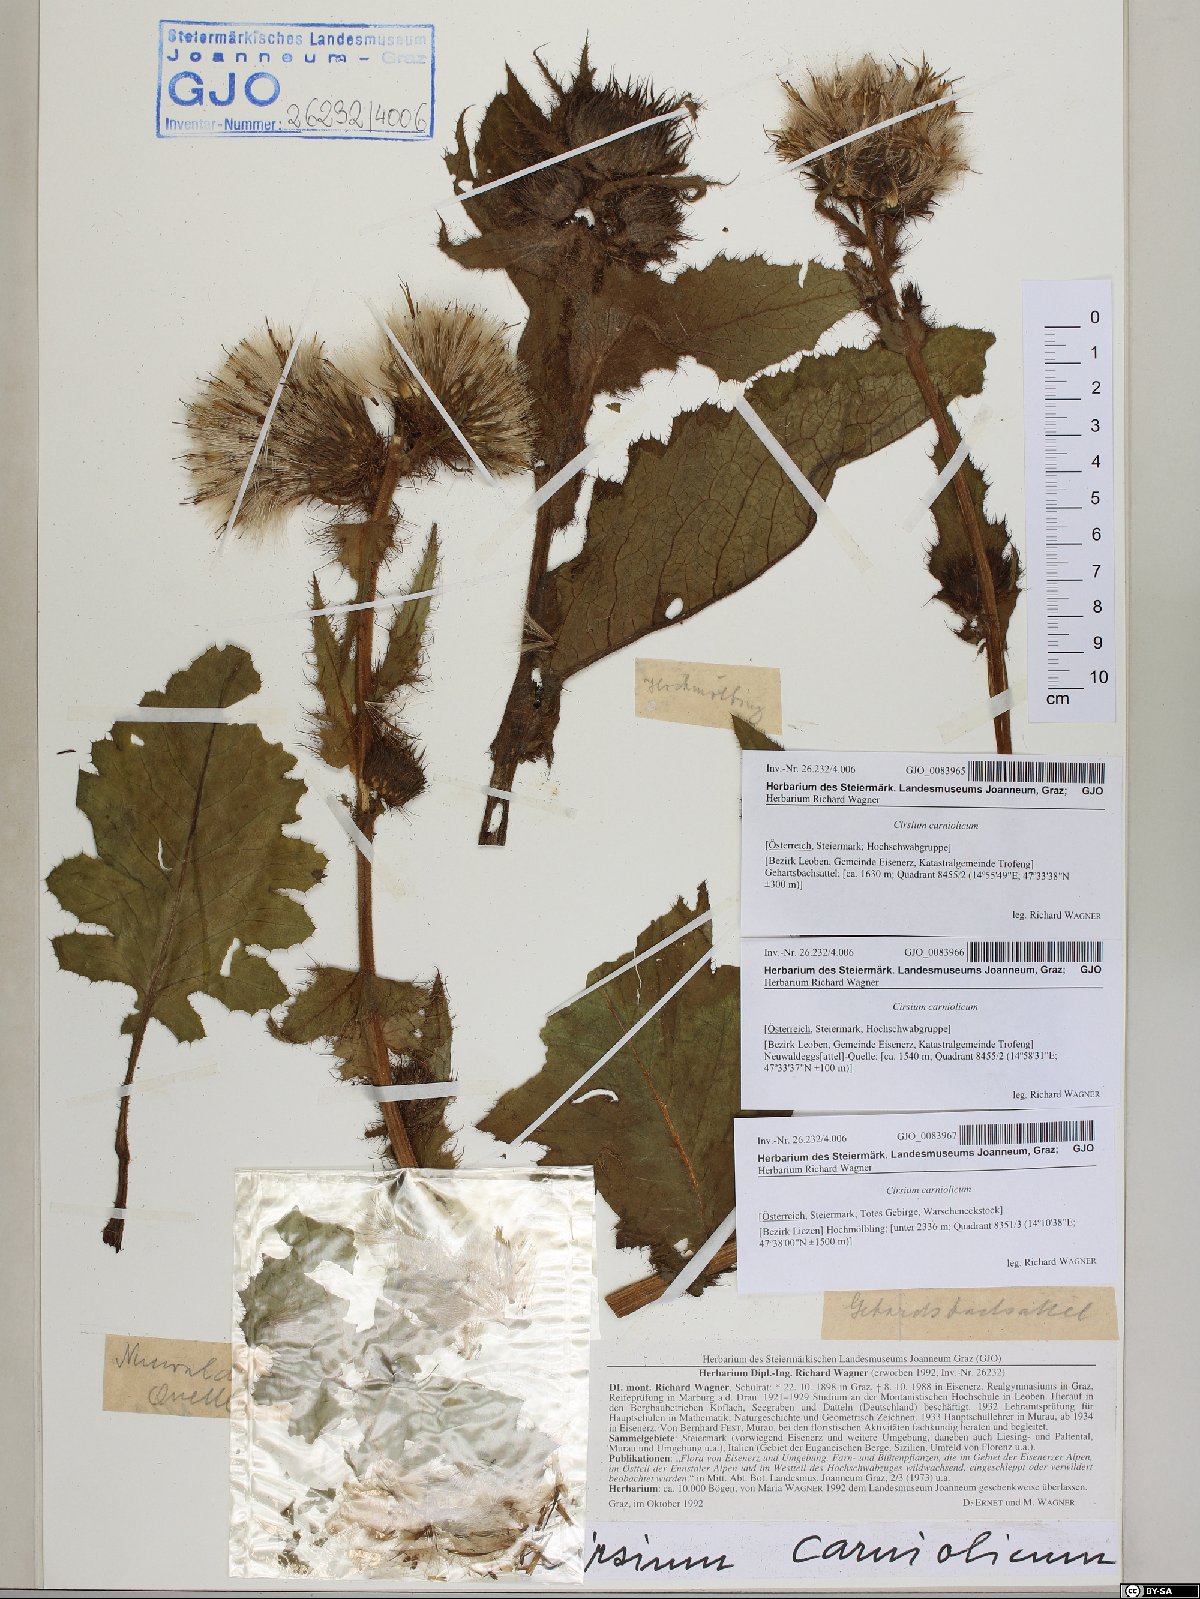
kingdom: Plantae
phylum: Tracheophyta
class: Magnoliopsida
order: Asterales
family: Asteraceae
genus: Cirsium
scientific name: Cirsium carniolicum
